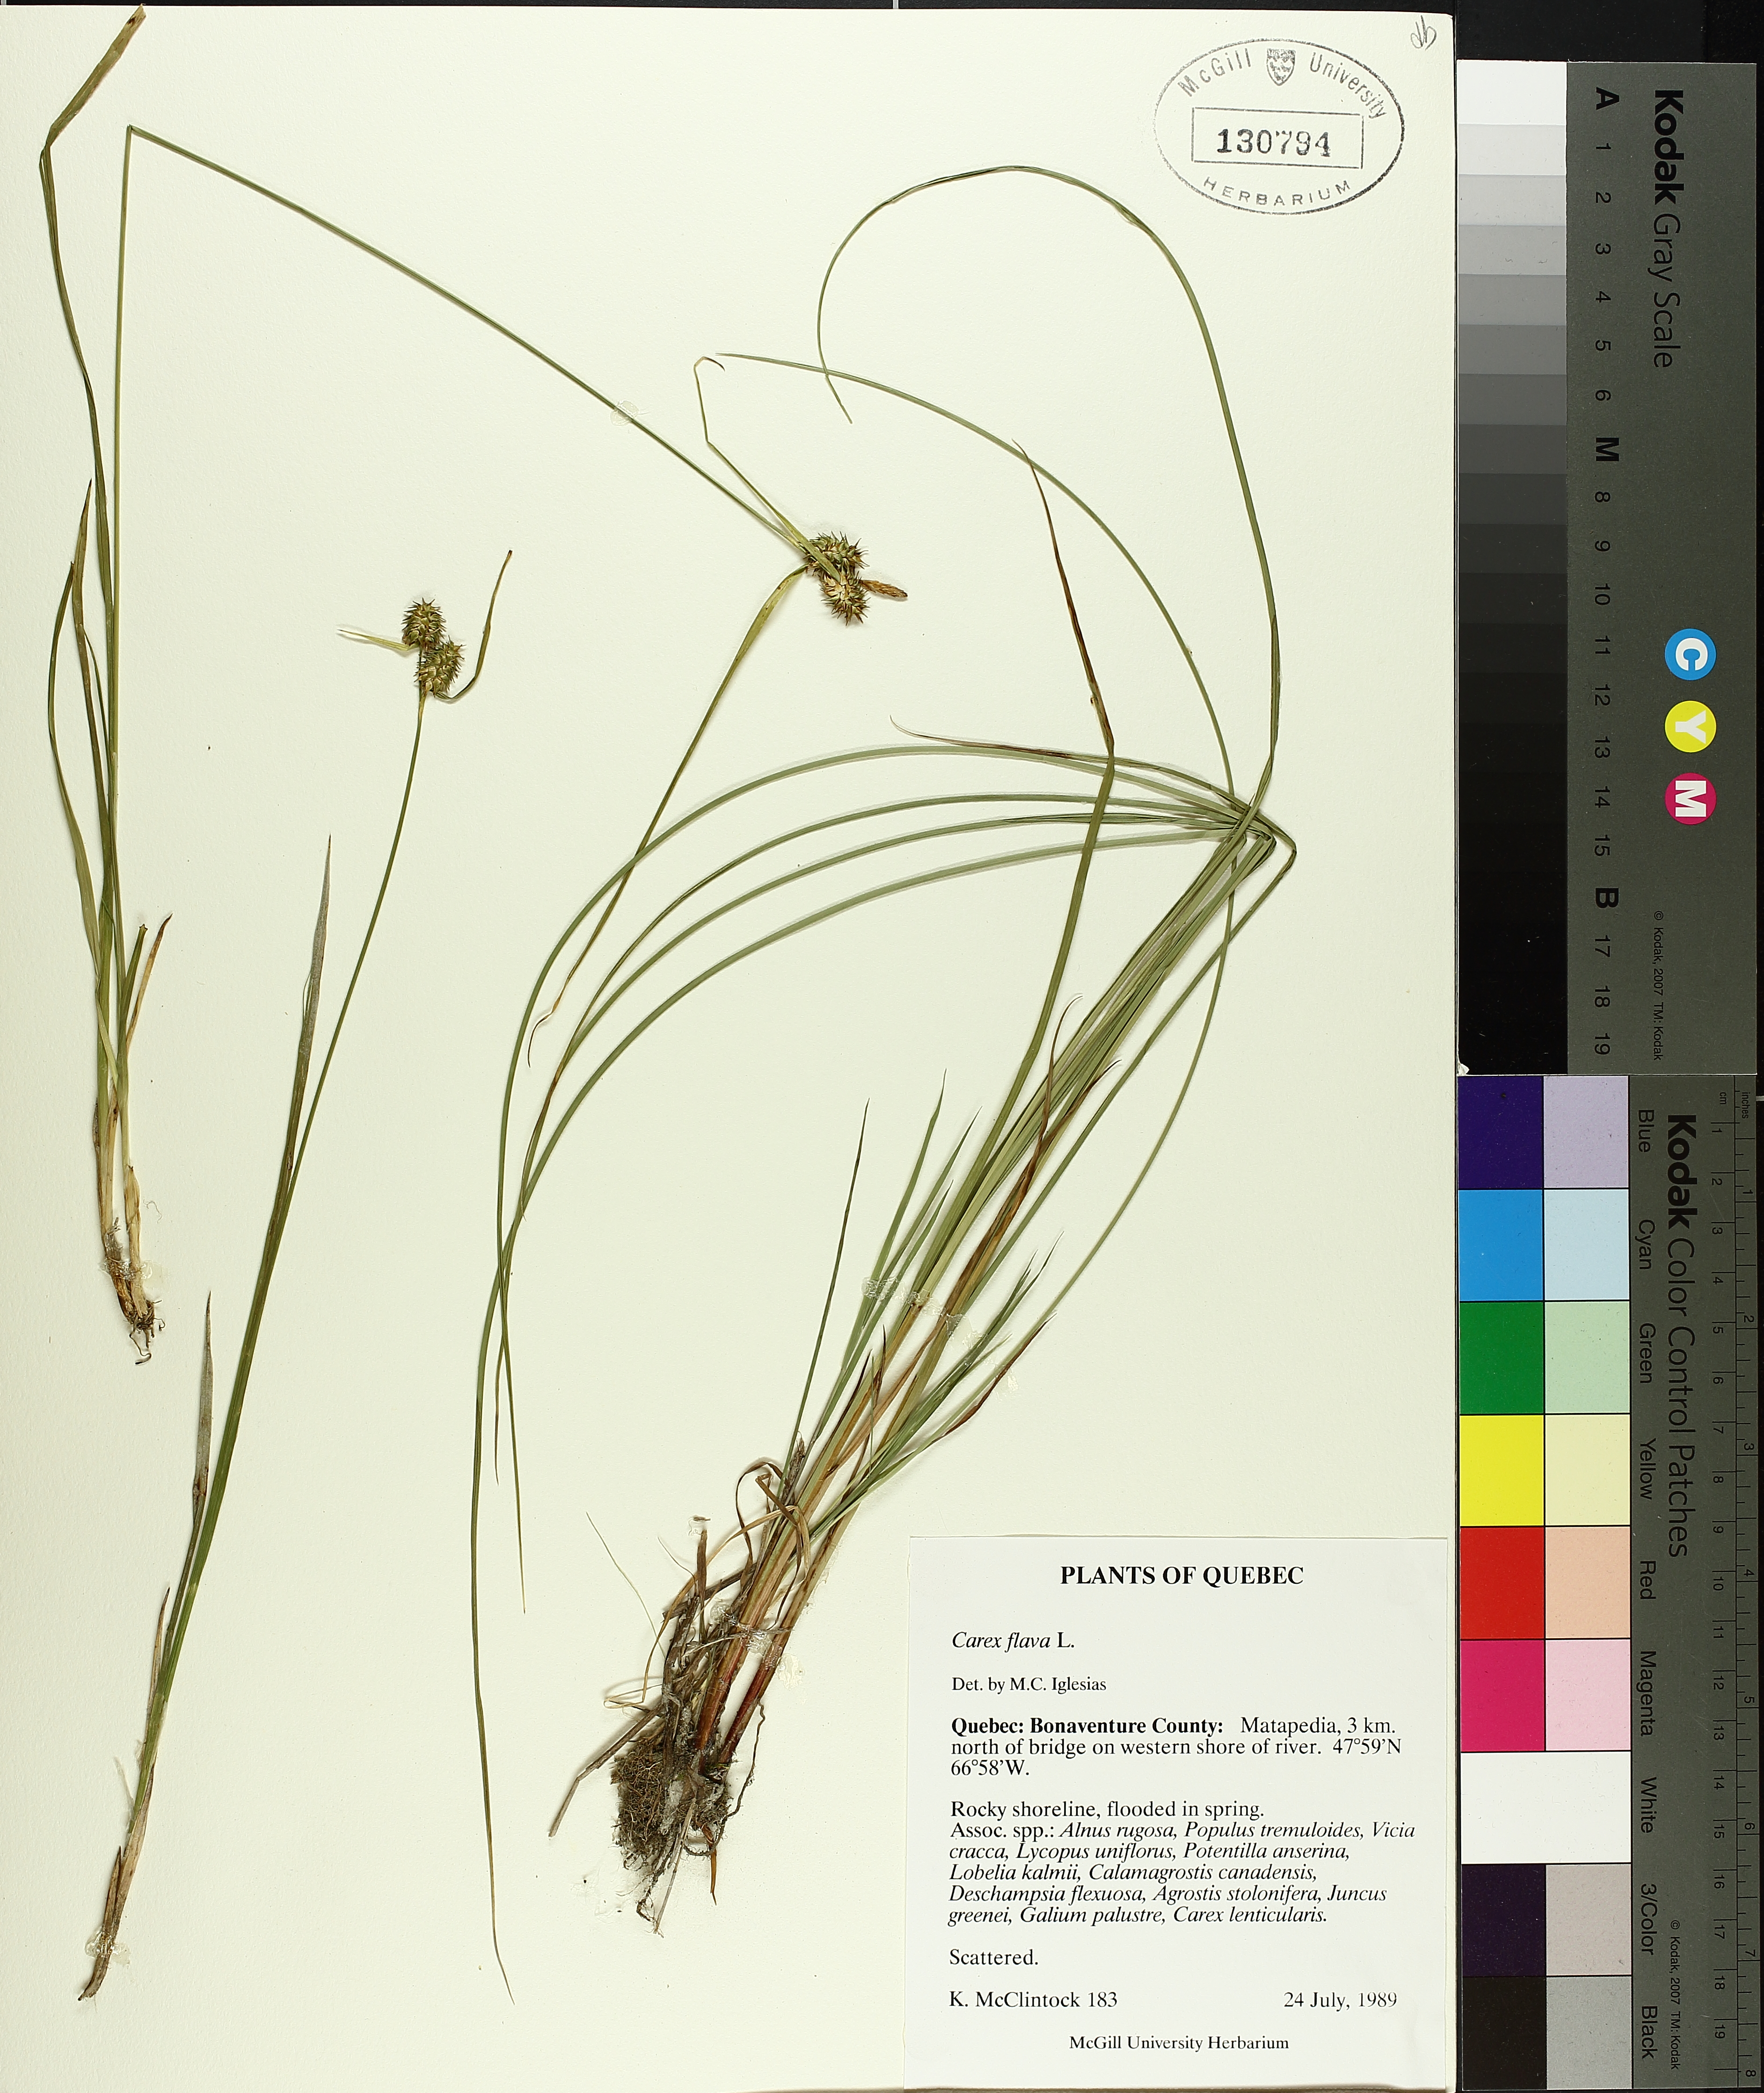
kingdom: Plantae
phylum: Tracheophyta
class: Liliopsida
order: Poales
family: Cyperaceae
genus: Carex
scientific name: Carex flava
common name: Large yellow-sedge
